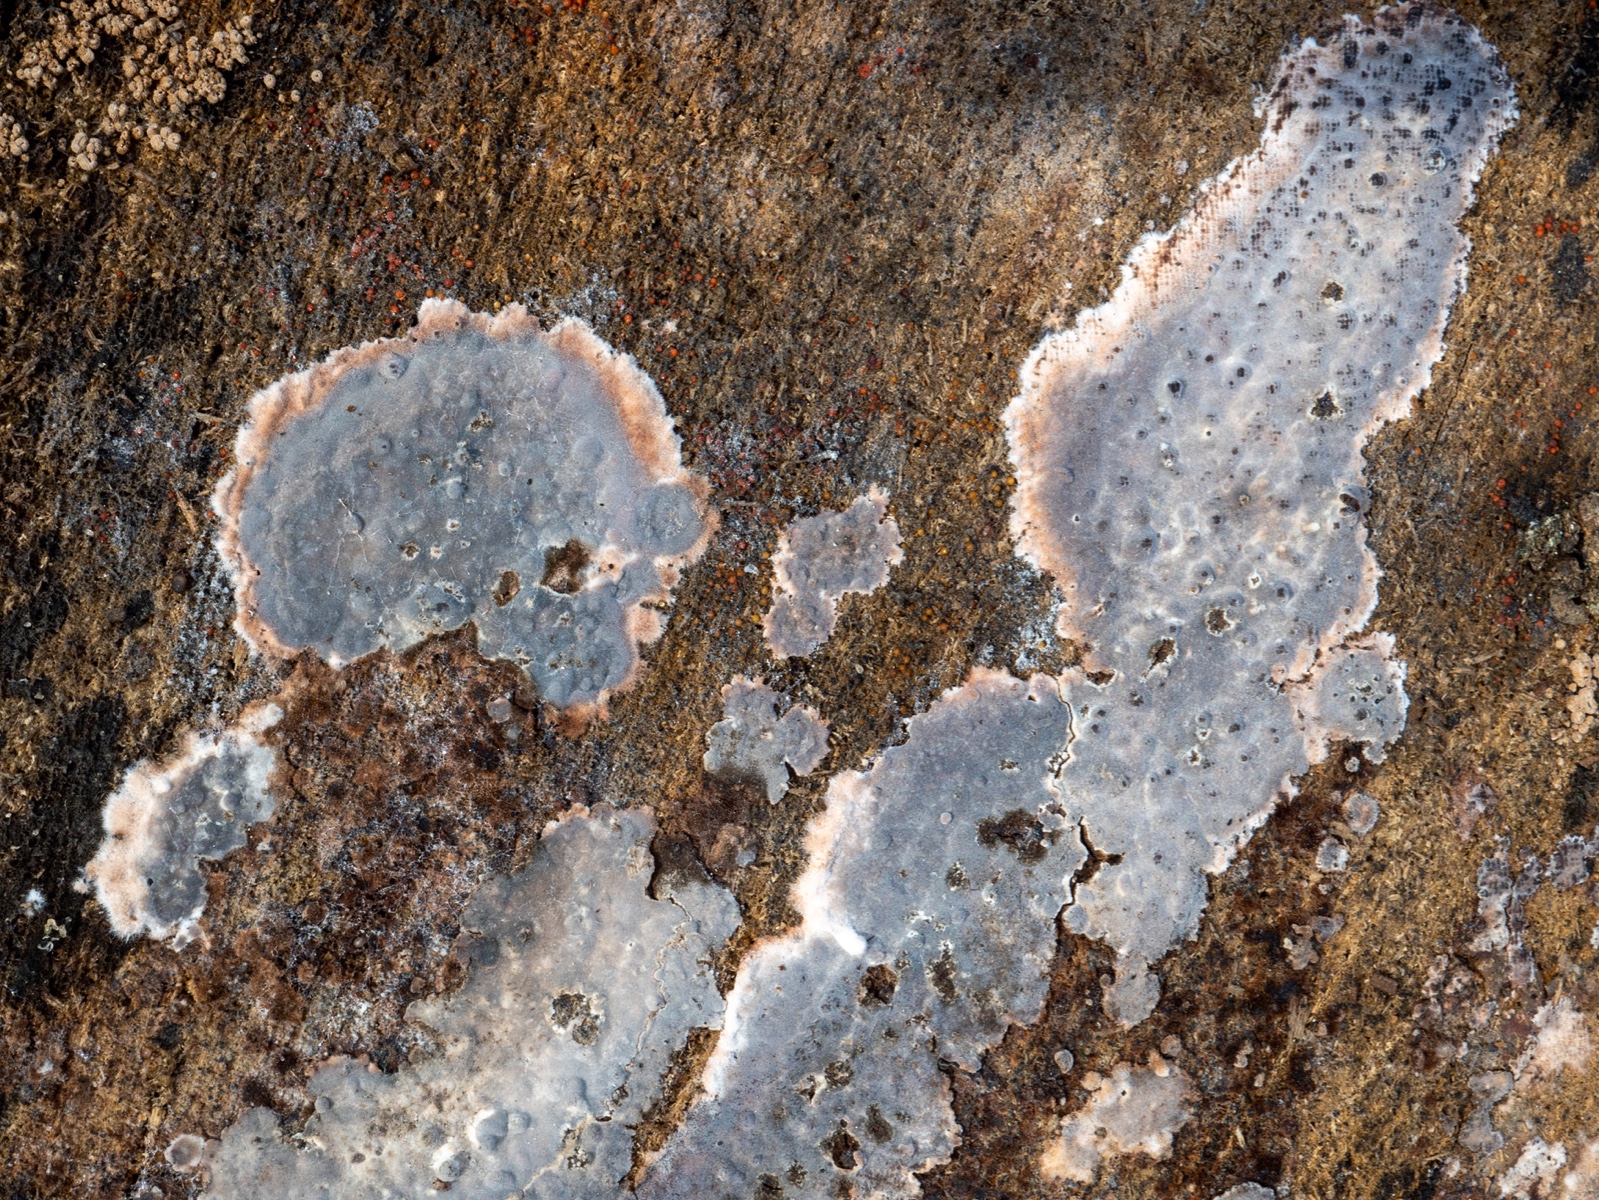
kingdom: Fungi
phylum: Basidiomycota
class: Agaricomycetes
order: Russulales
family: Peniophoraceae
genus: Peniophora
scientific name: Peniophora rufomarginata
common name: linde-voksskind
